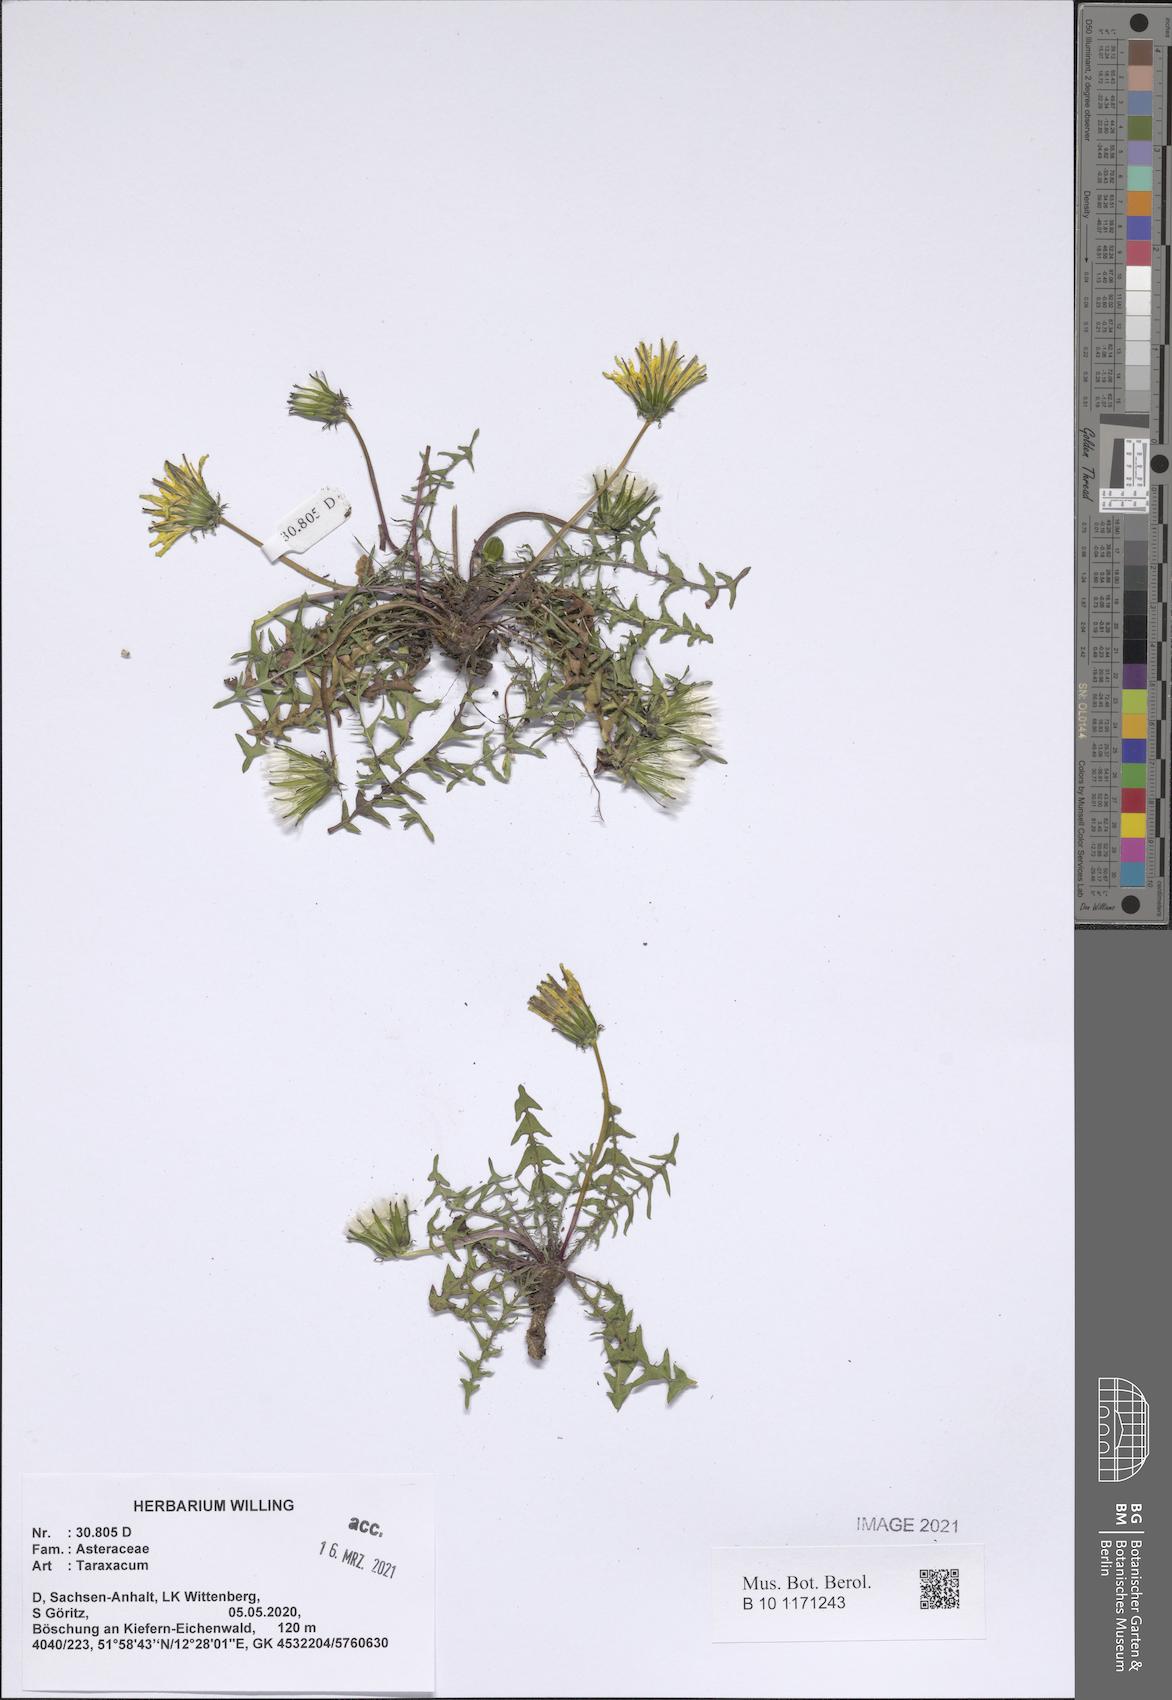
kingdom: Plantae
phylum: Tracheophyta
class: Magnoliopsida
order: Asterales
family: Asteraceae
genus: Taraxacum
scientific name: Taraxacum
